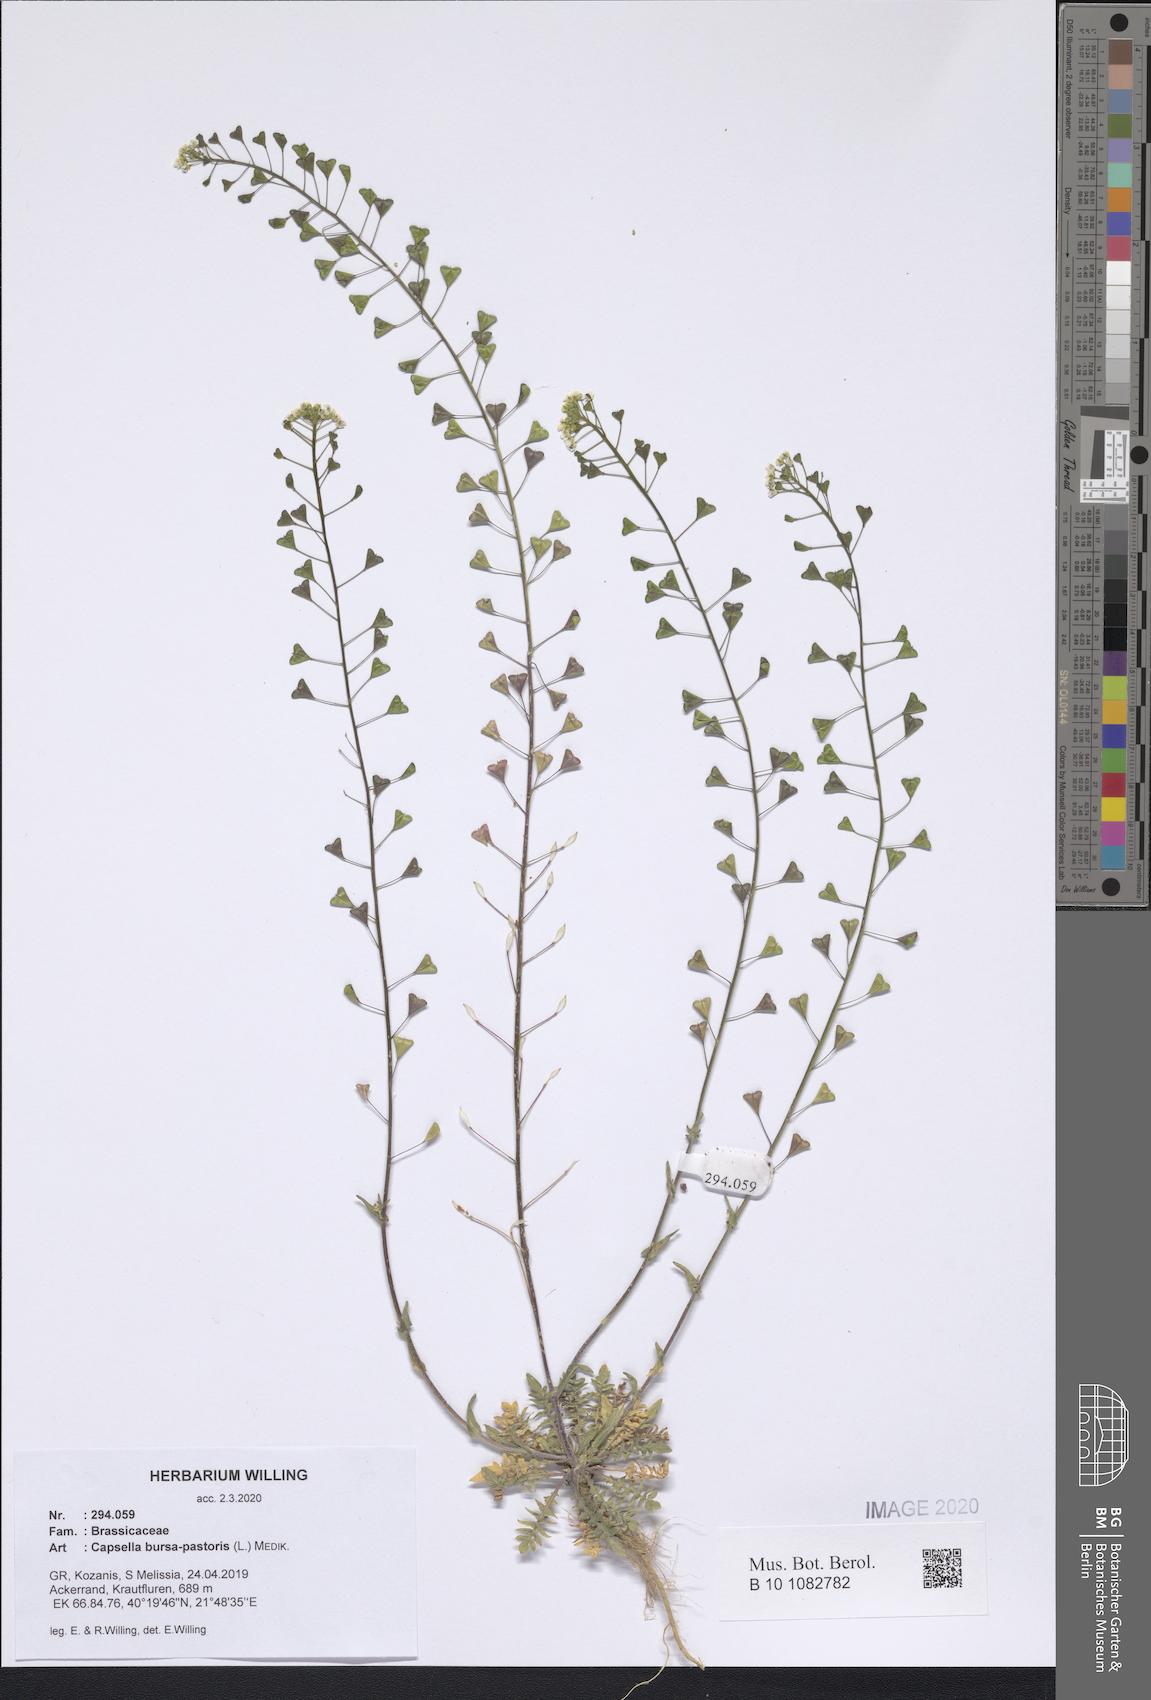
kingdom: Plantae
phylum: Tracheophyta
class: Magnoliopsida
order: Brassicales
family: Brassicaceae
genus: Capsella
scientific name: Capsella bursa-pastoris
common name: Shepherd's purse
